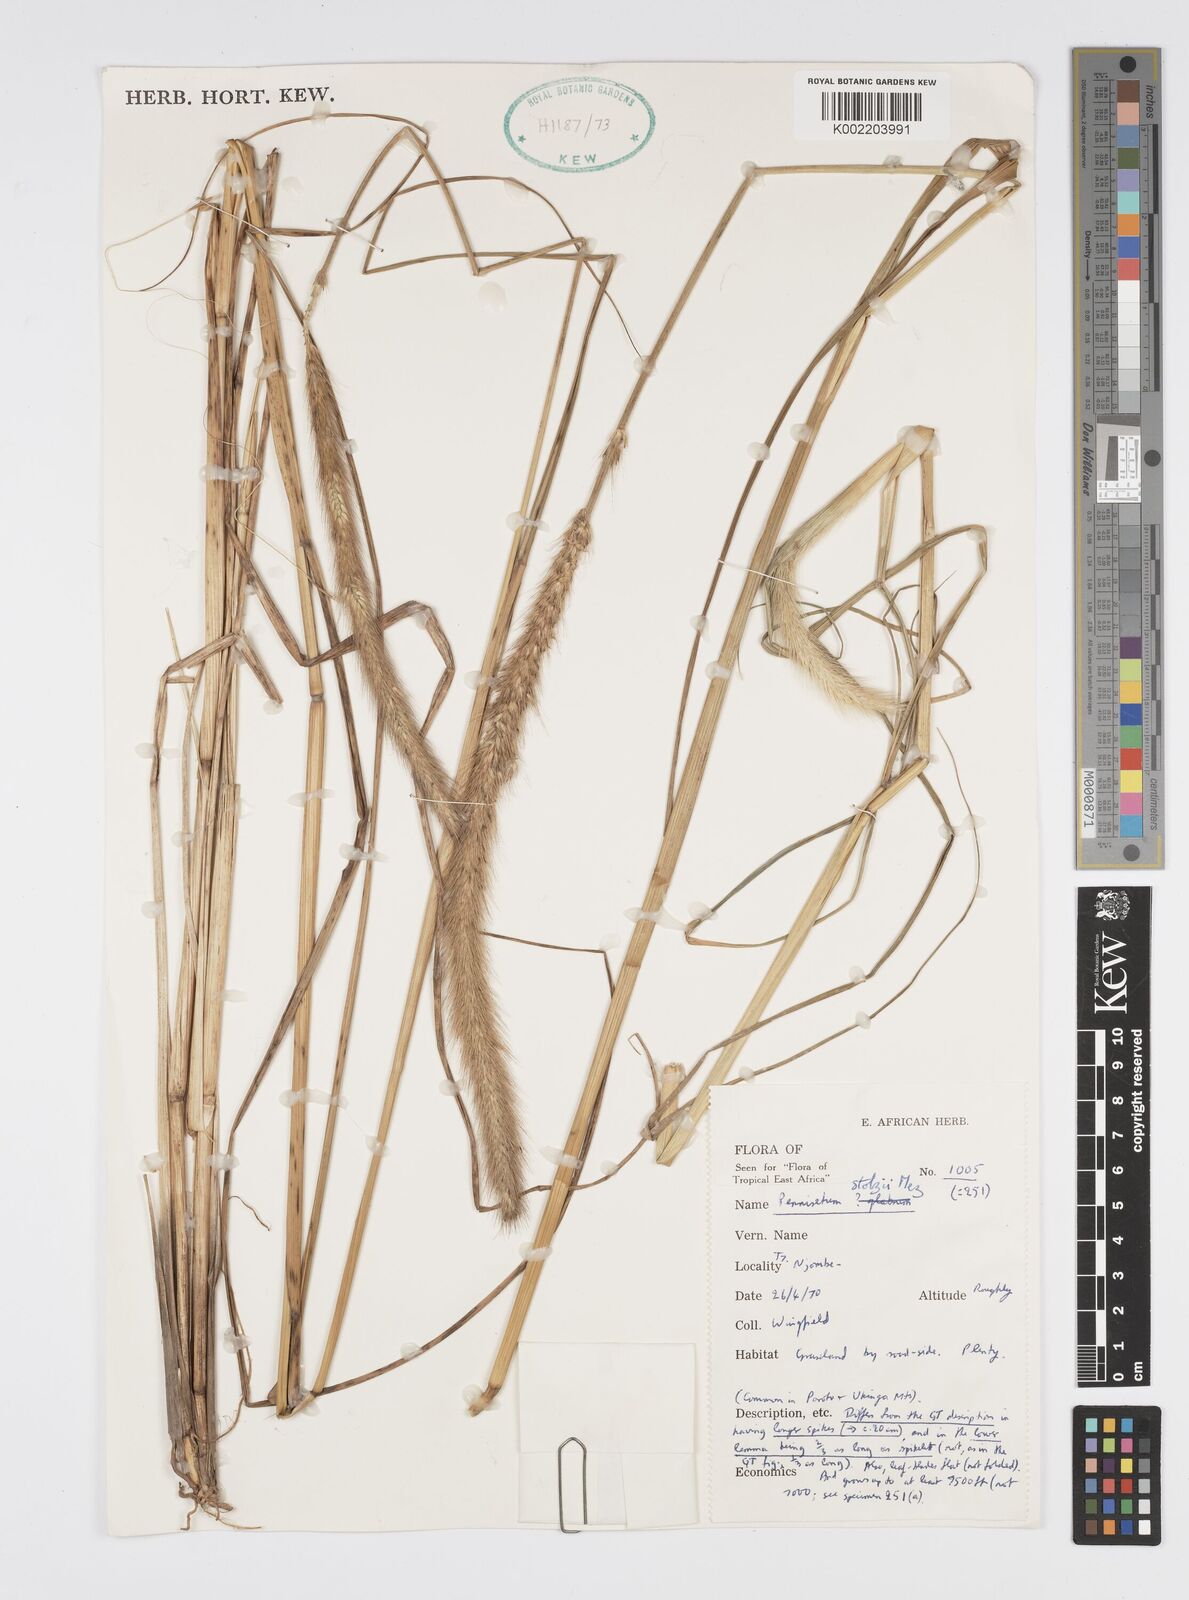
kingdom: Plantae
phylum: Tracheophyta
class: Liliopsida
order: Poales
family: Poaceae
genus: Cenchrus
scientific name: Cenchrus caudatus
